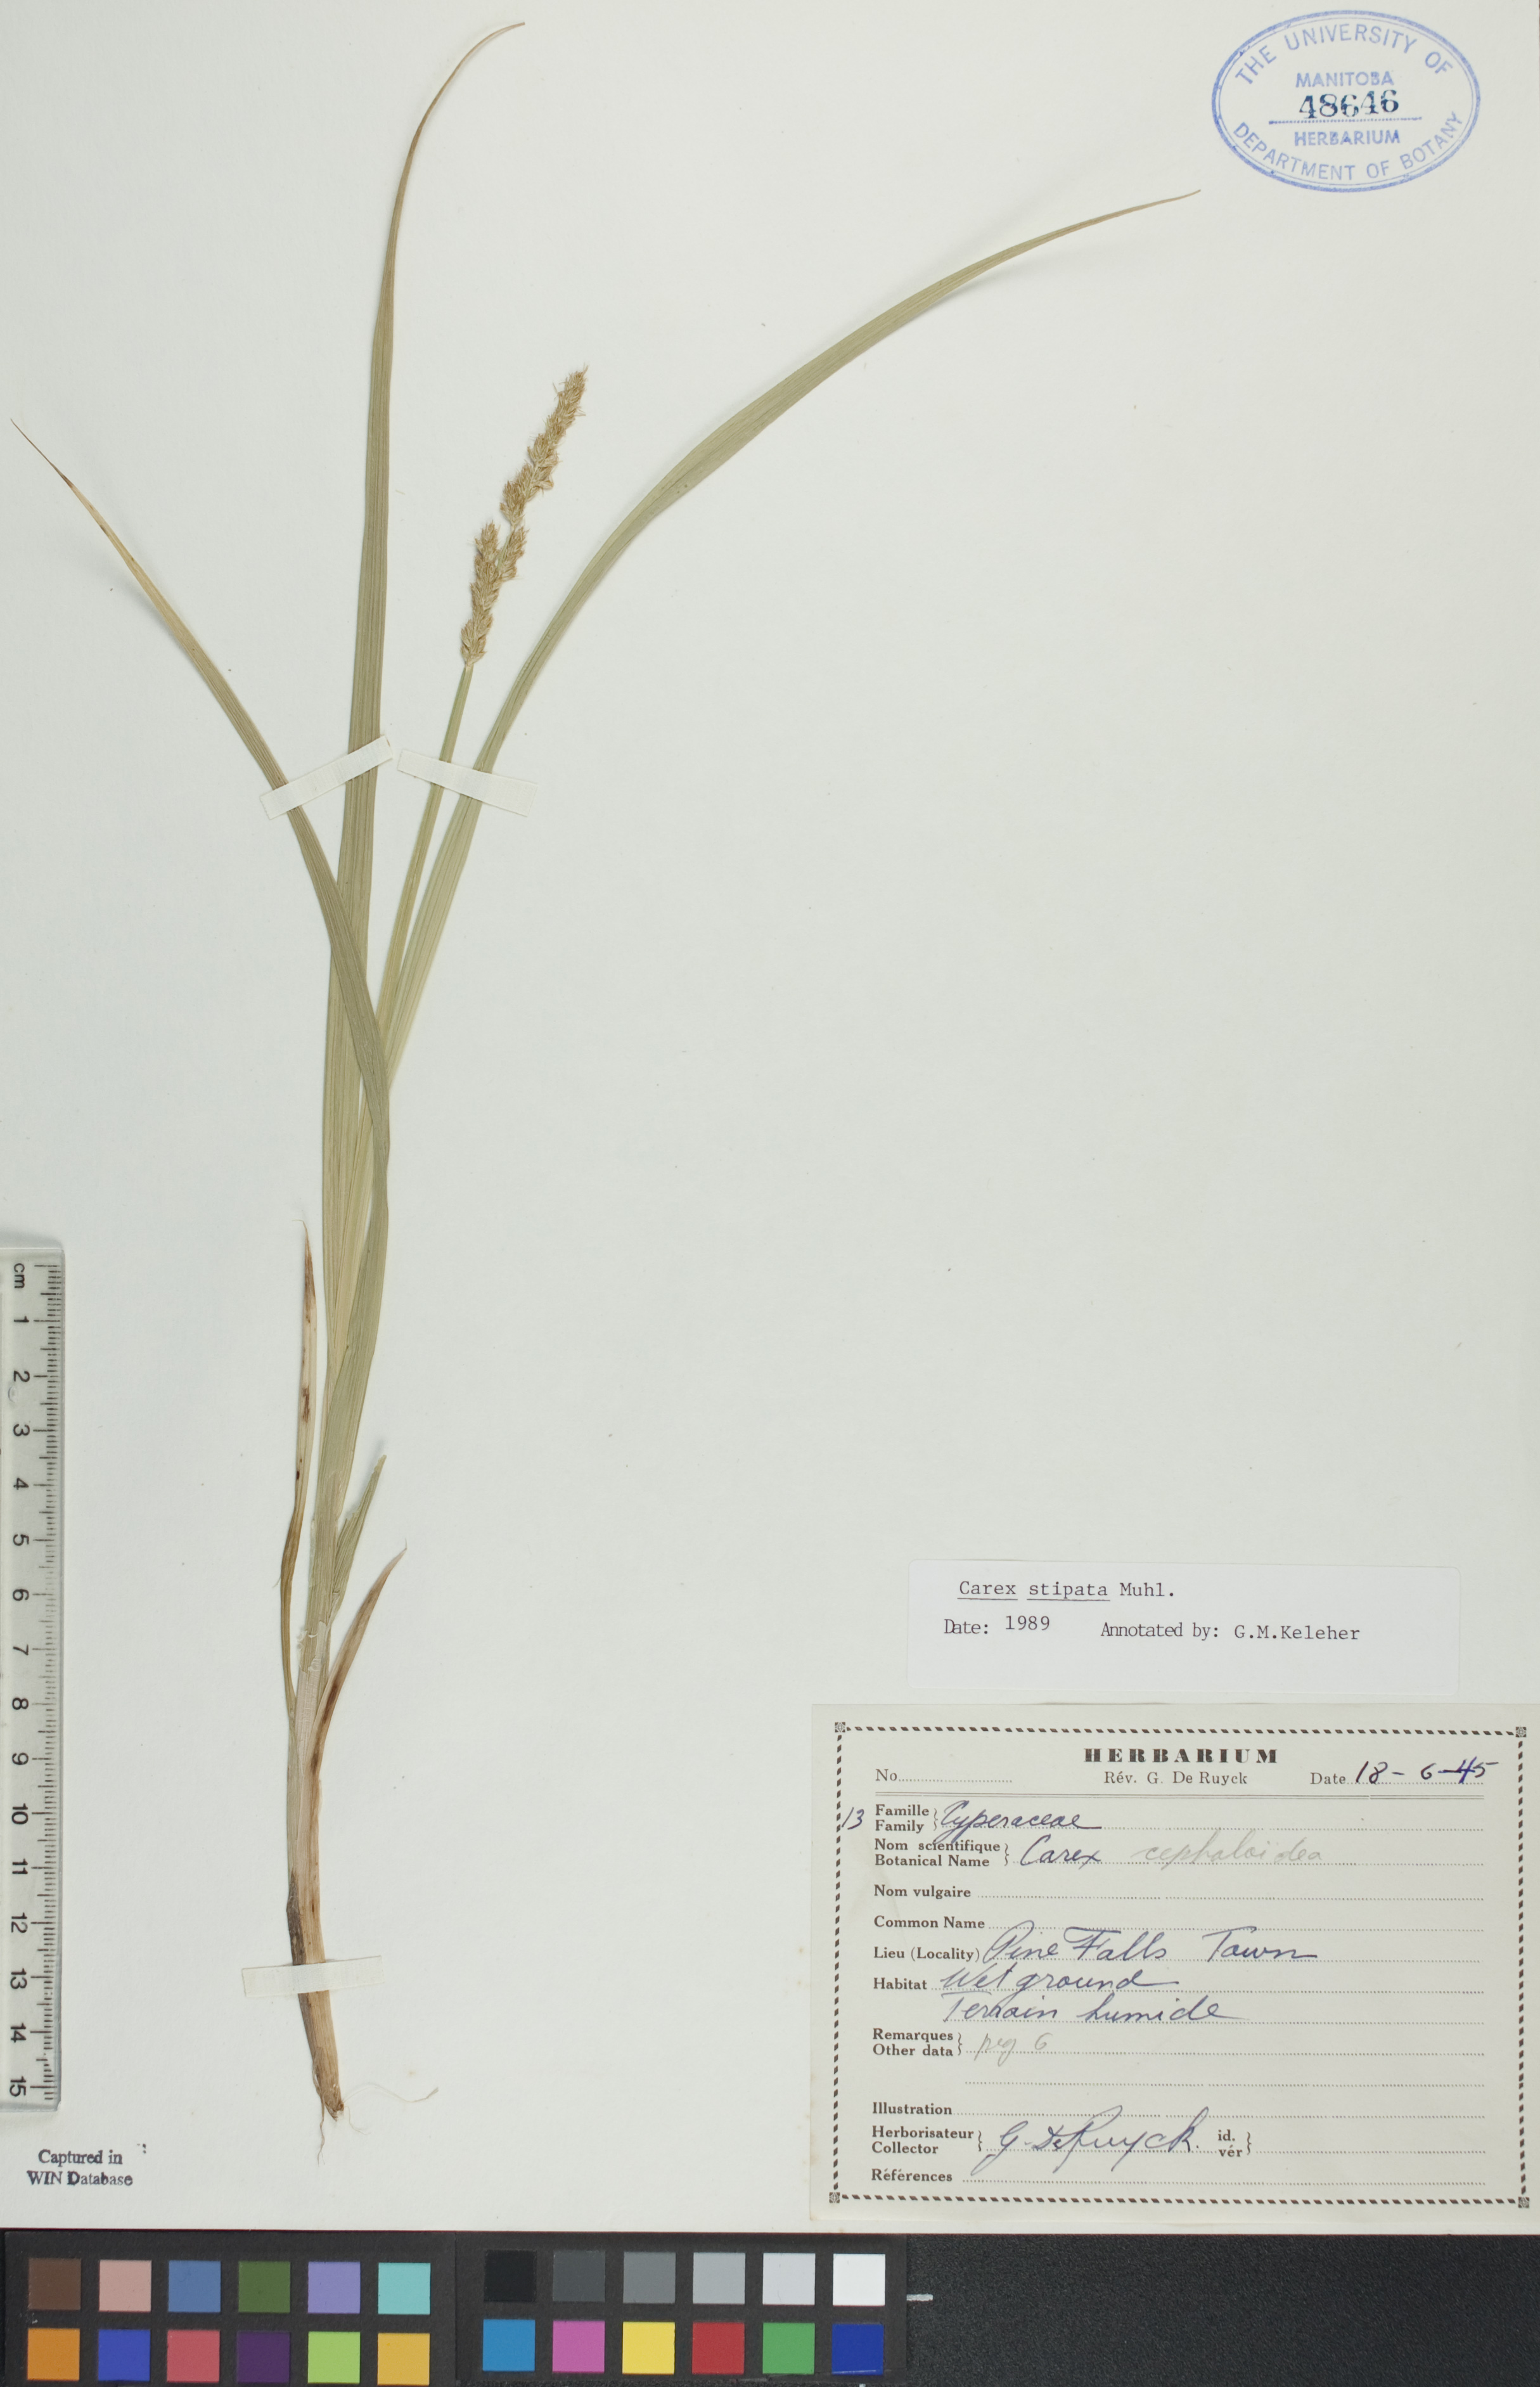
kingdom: Plantae
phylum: Tracheophyta
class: Liliopsida
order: Poales
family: Cyperaceae
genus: Carex
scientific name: Carex stipata
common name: Awl-fruited sedge
